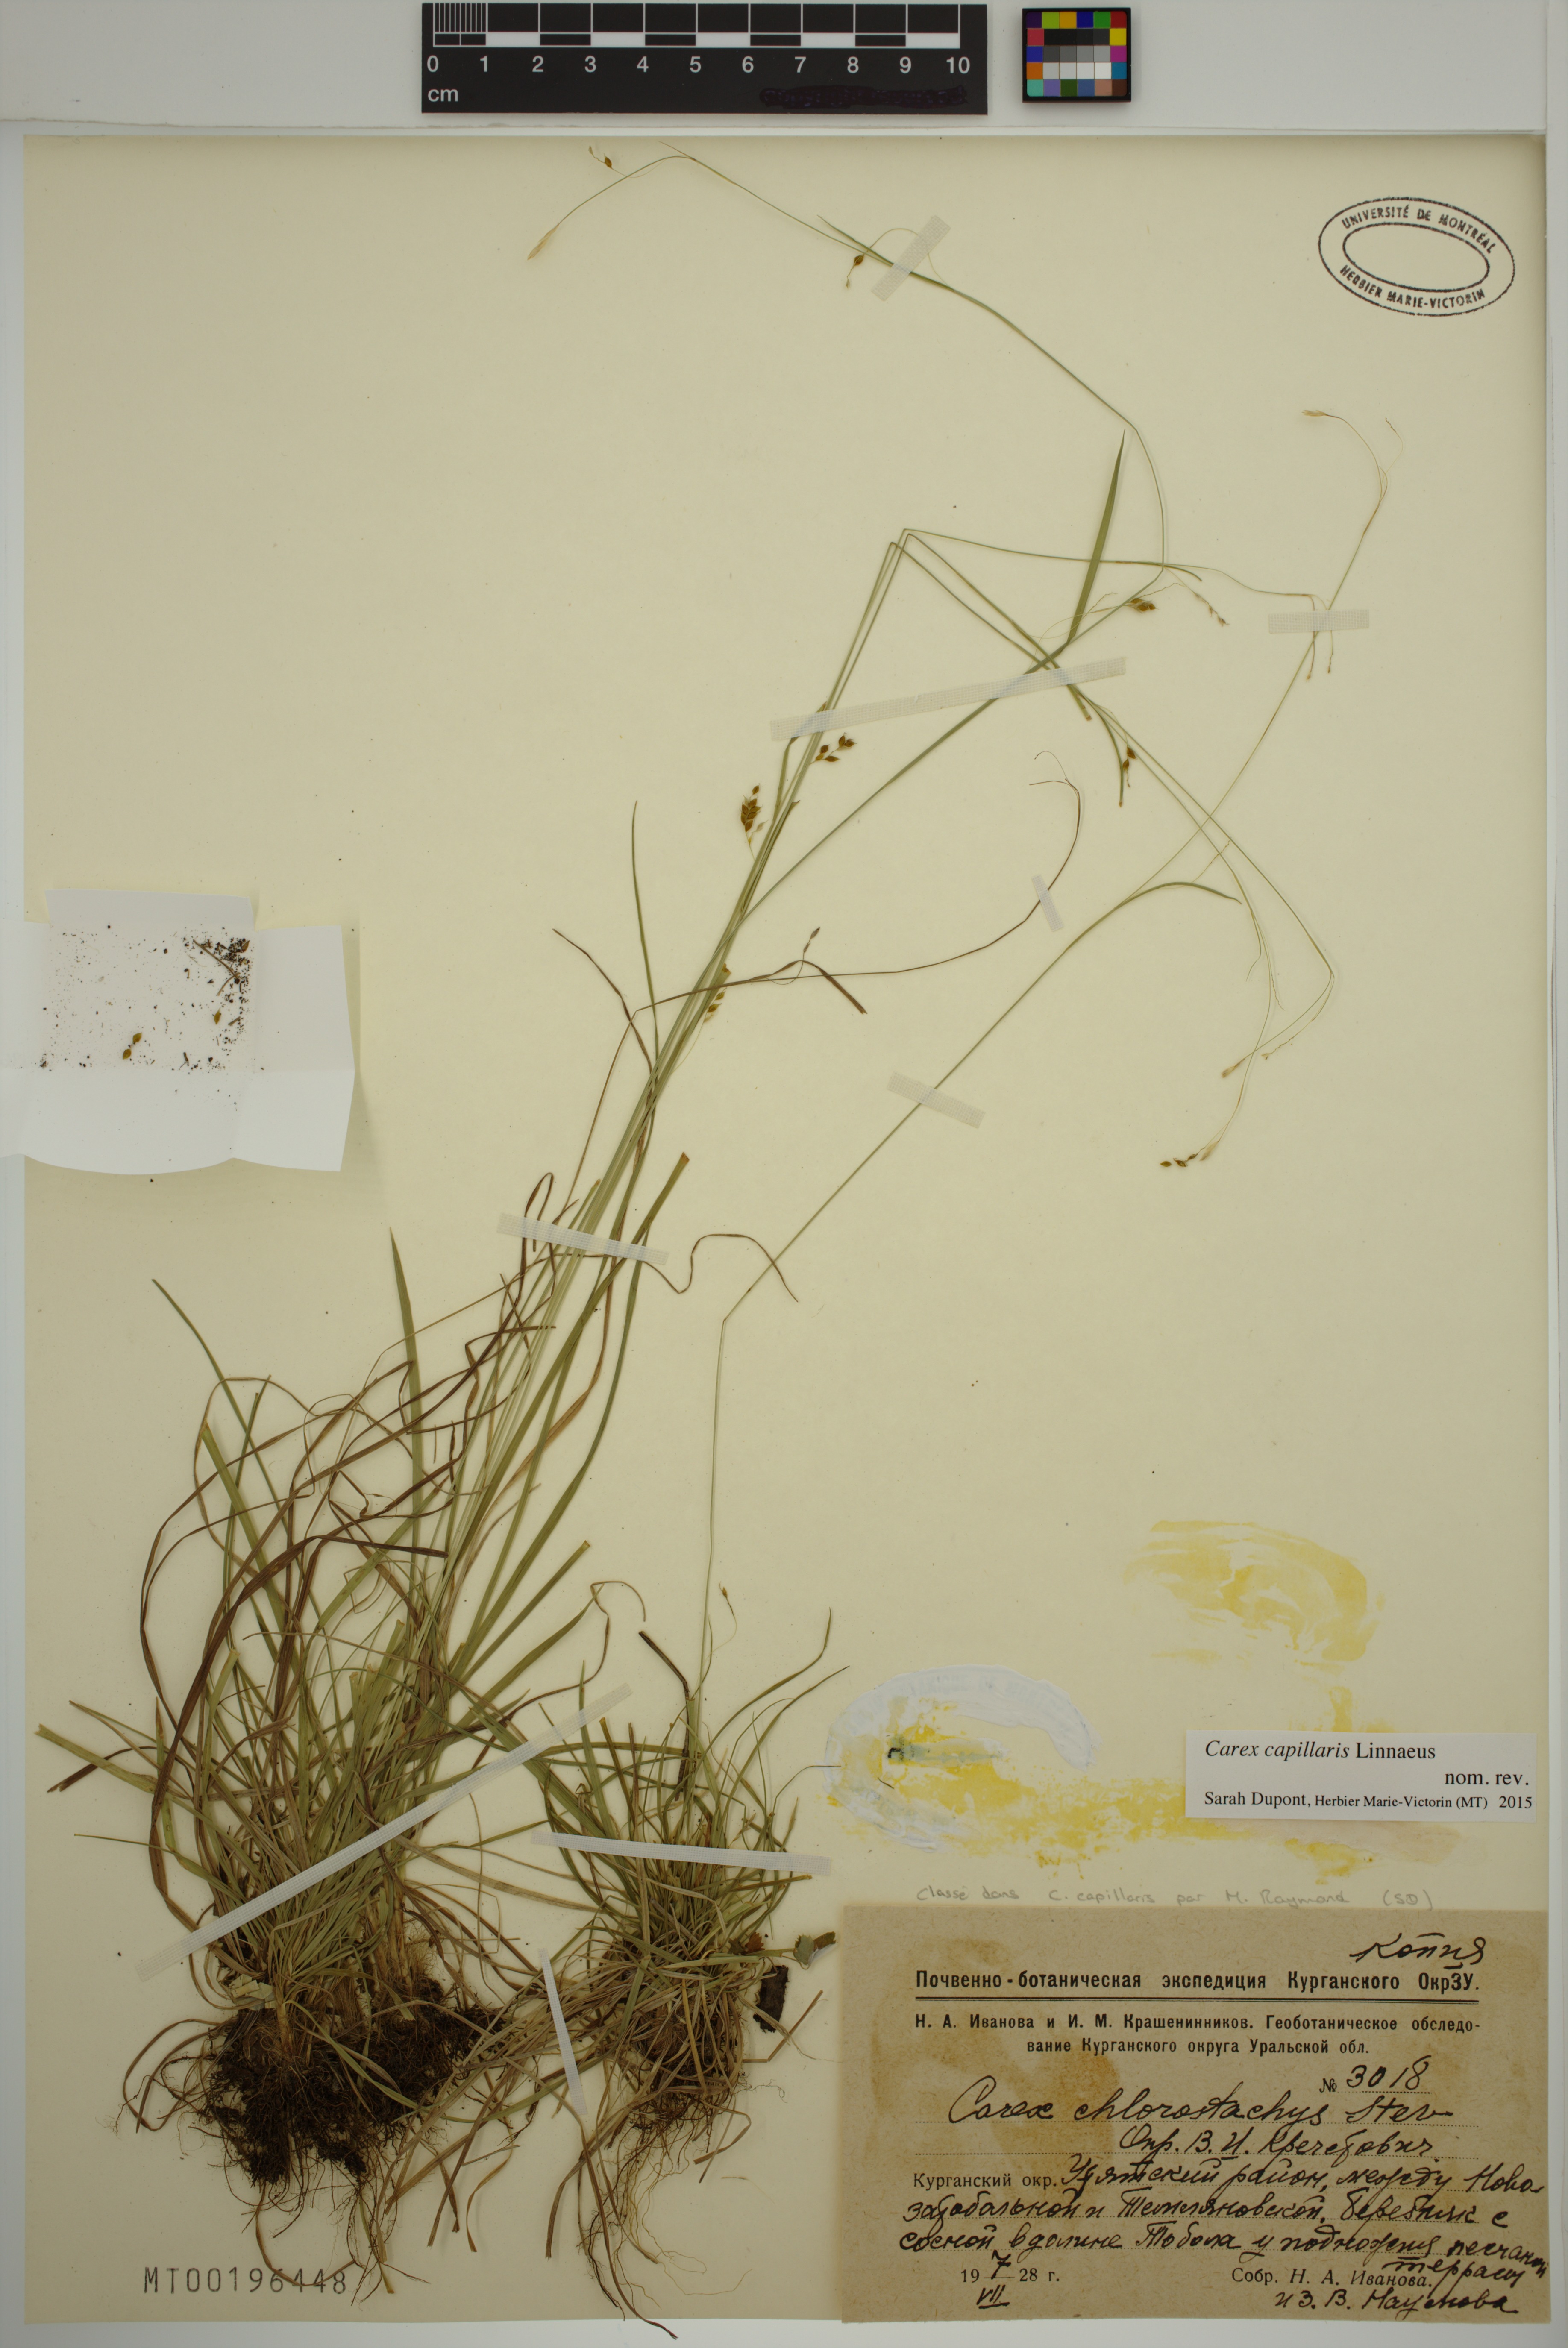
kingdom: Plantae
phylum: Tracheophyta
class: Liliopsida
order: Poales
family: Cyperaceae
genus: Carex
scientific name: Carex capillaris
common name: Hair sedge
